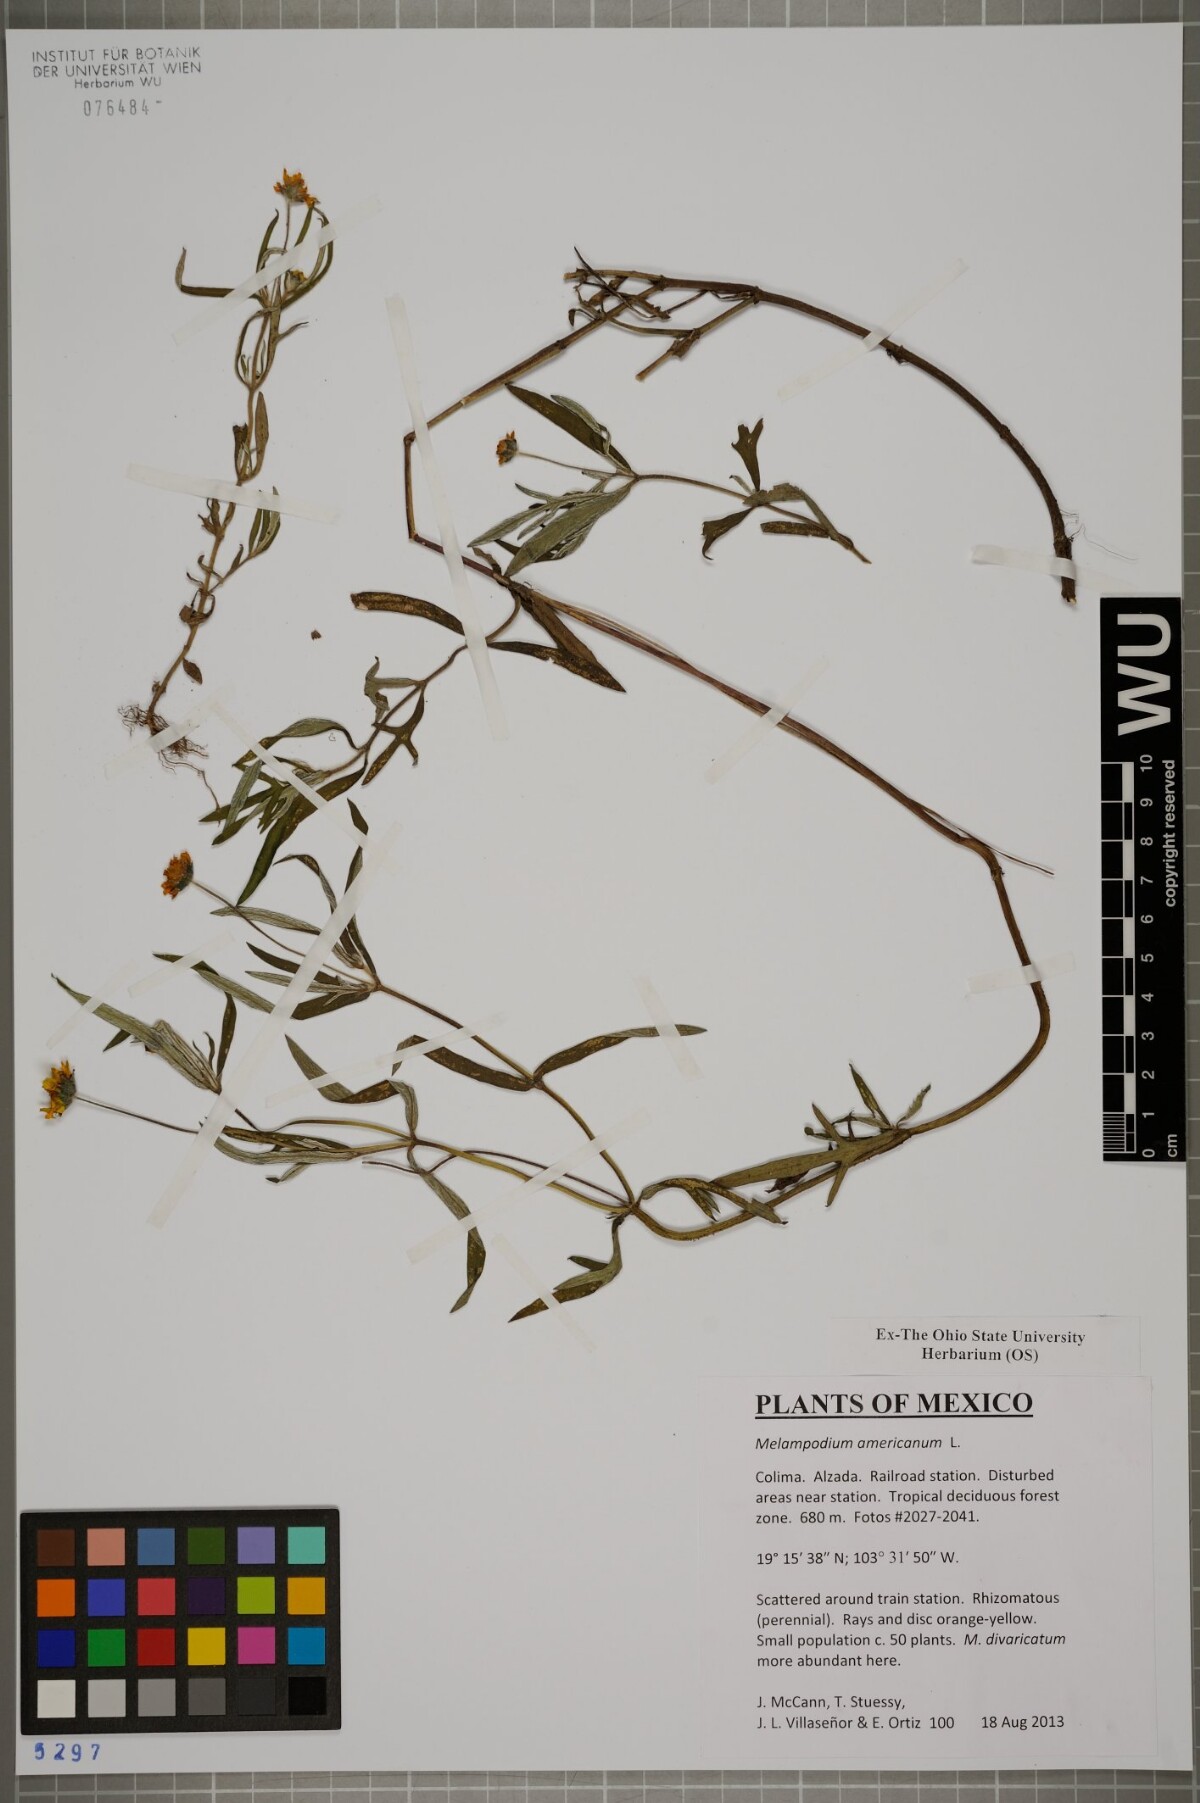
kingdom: Plantae
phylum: Tracheophyta
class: Magnoliopsida
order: Asterales
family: Asteraceae
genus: Melampodium
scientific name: Melampodium americanum
